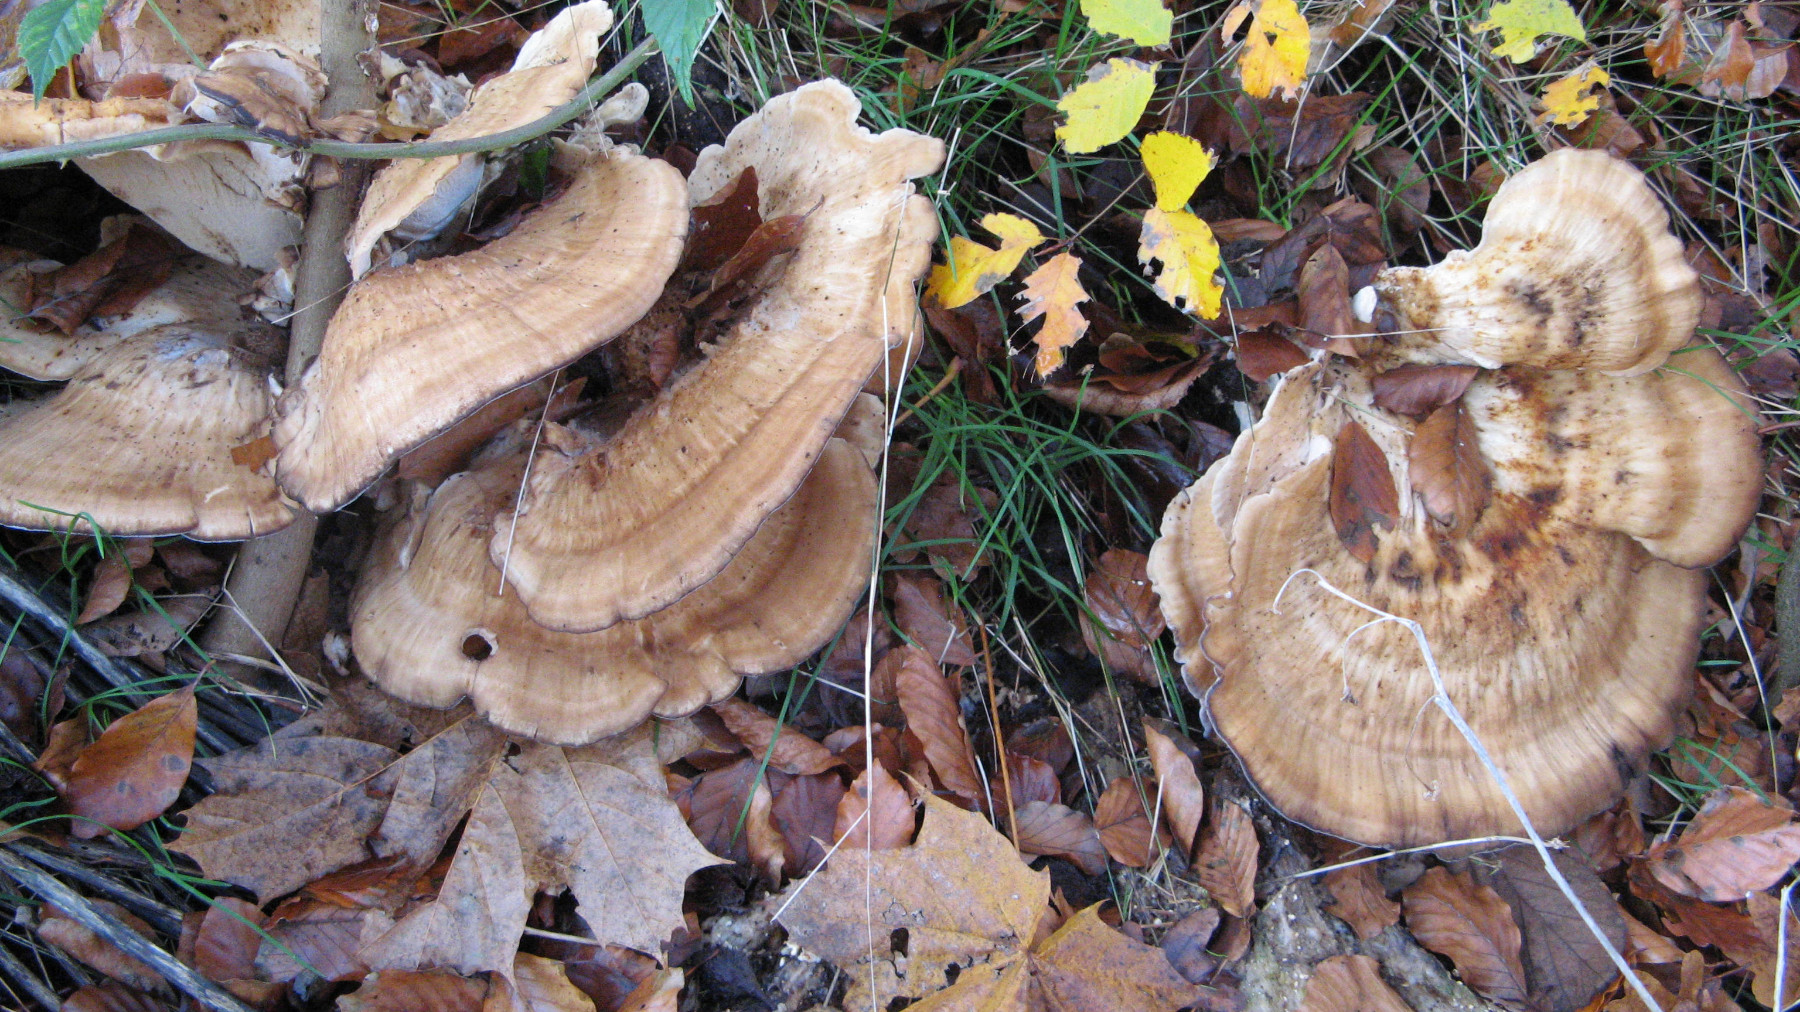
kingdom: Fungi
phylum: Basidiomycota
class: Agaricomycetes
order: Polyporales
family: Meripilaceae
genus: Meripilus
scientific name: Meripilus giganteus
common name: kæmpeporesvamp
